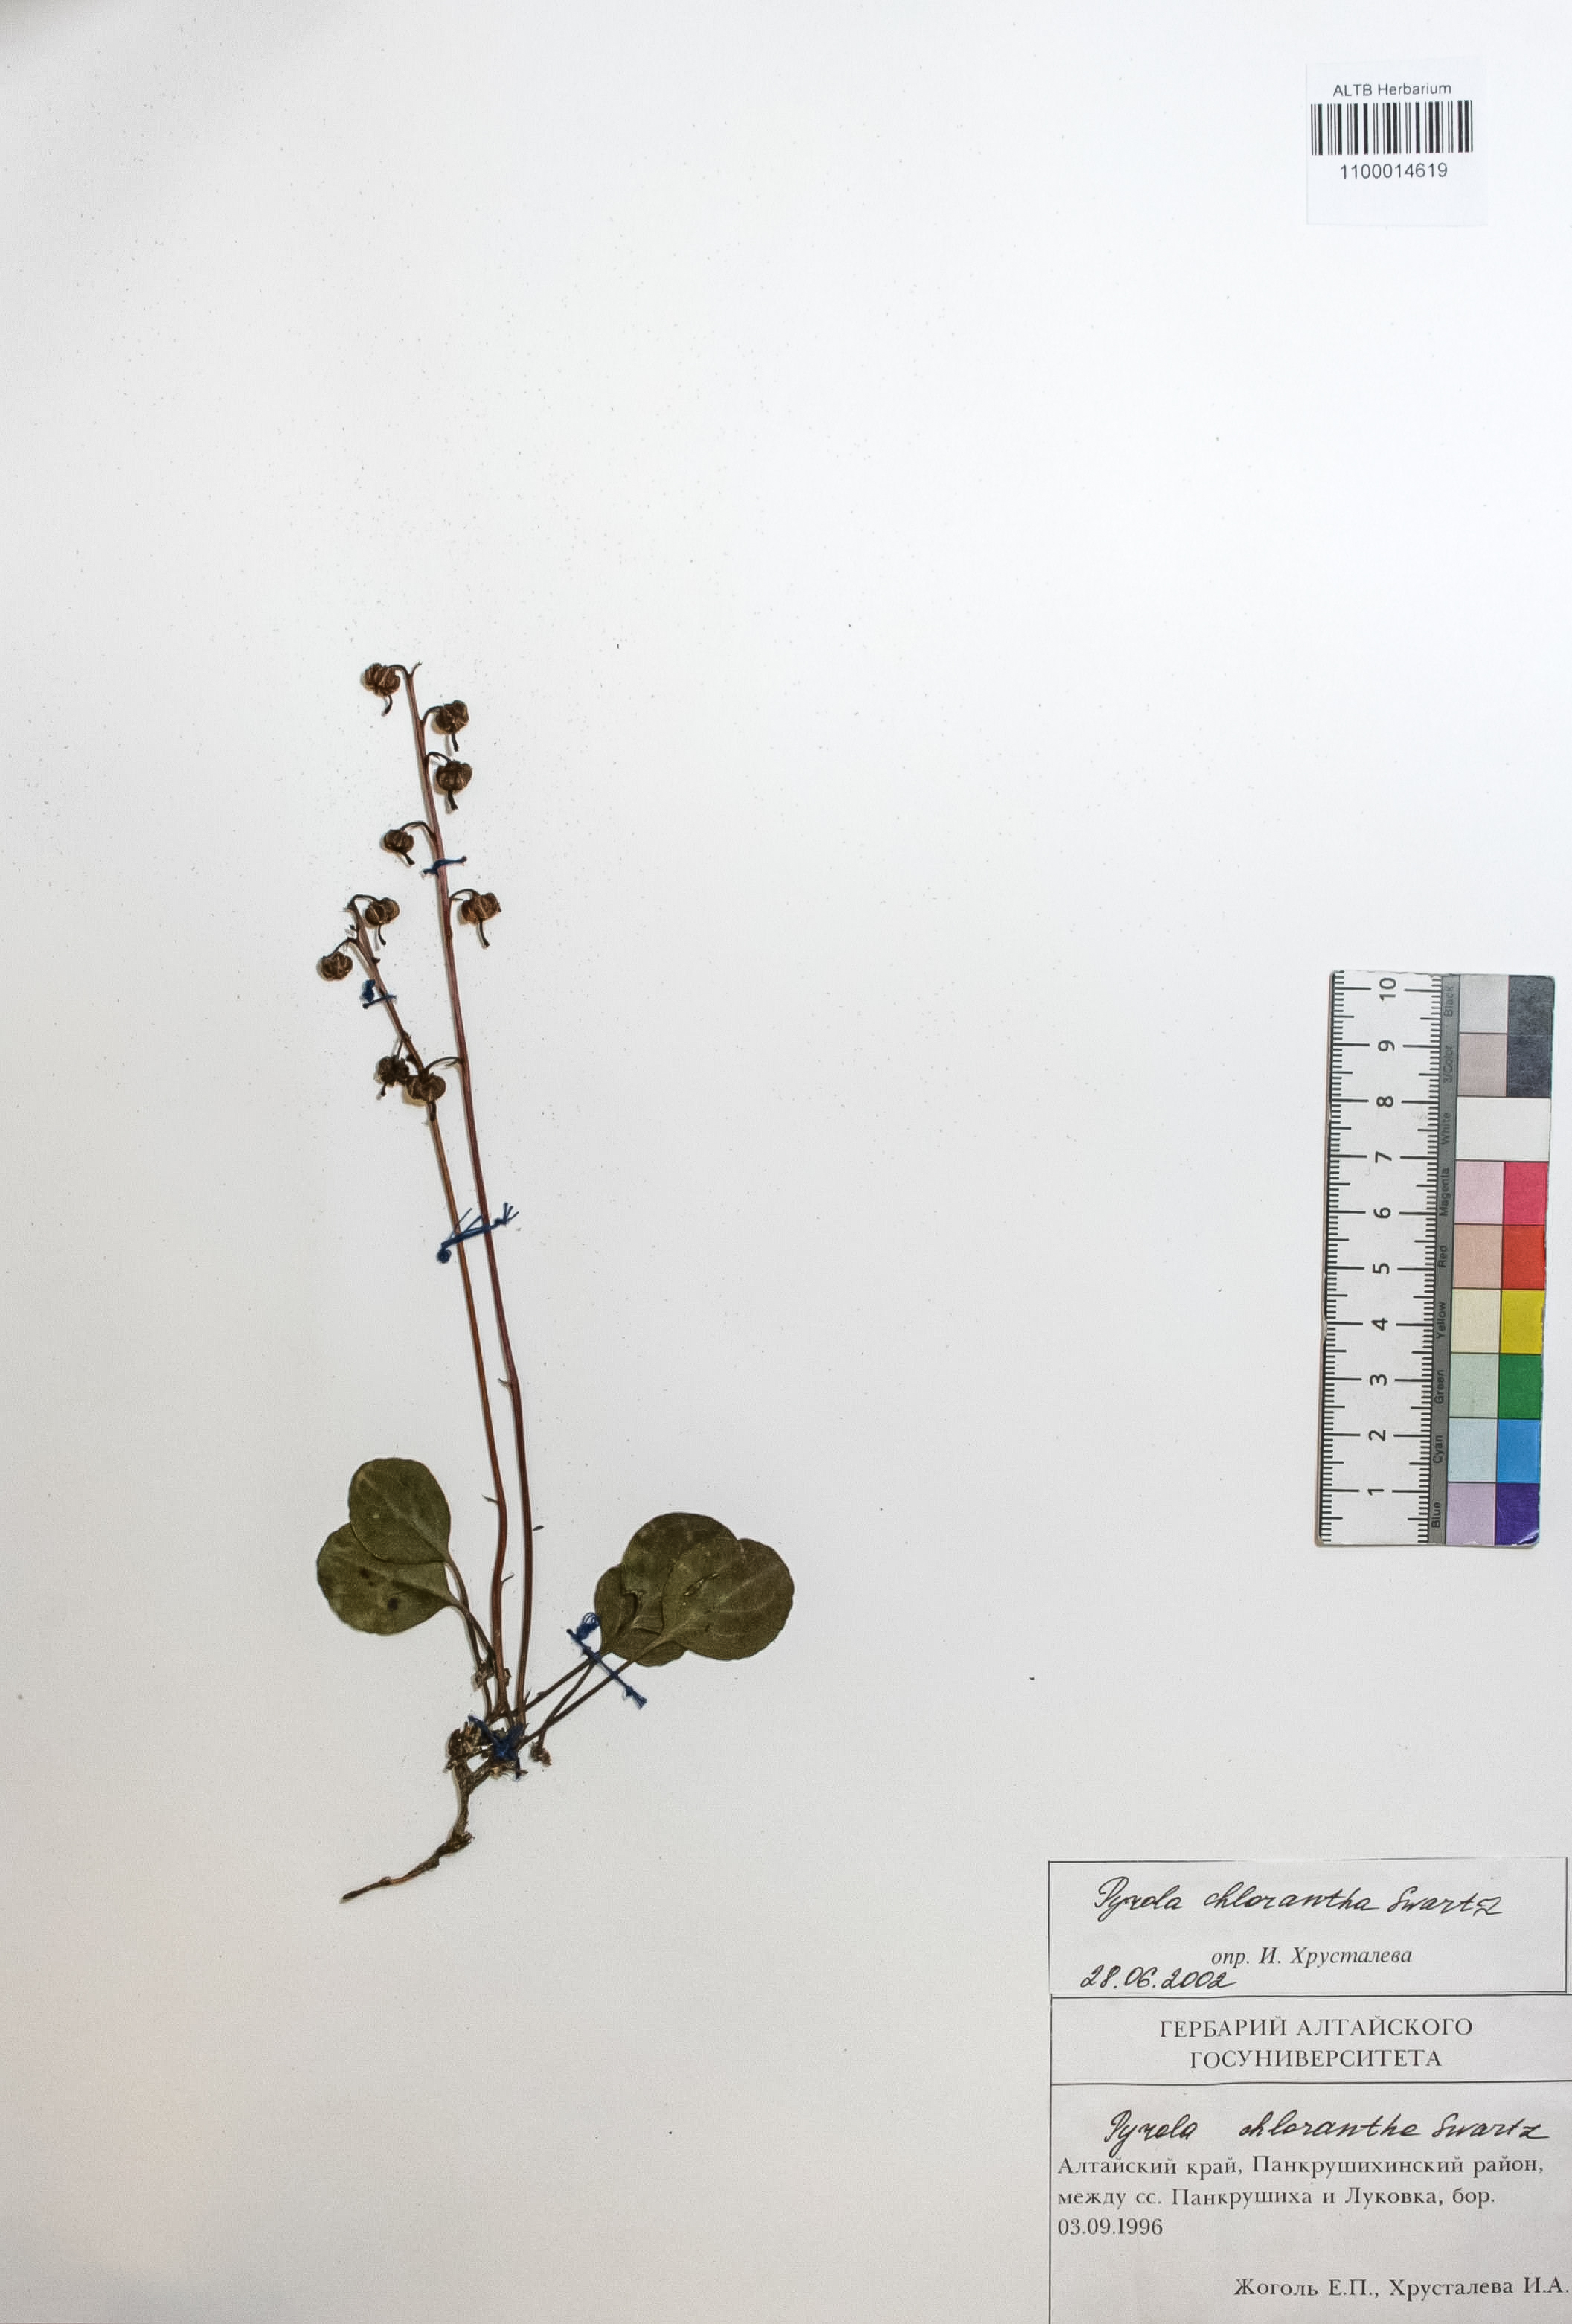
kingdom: Plantae
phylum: Tracheophyta
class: Magnoliopsida
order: Ericales
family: Ericaceae
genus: Pyrola
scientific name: Pyrola chlorantha
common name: Green wintergreen
